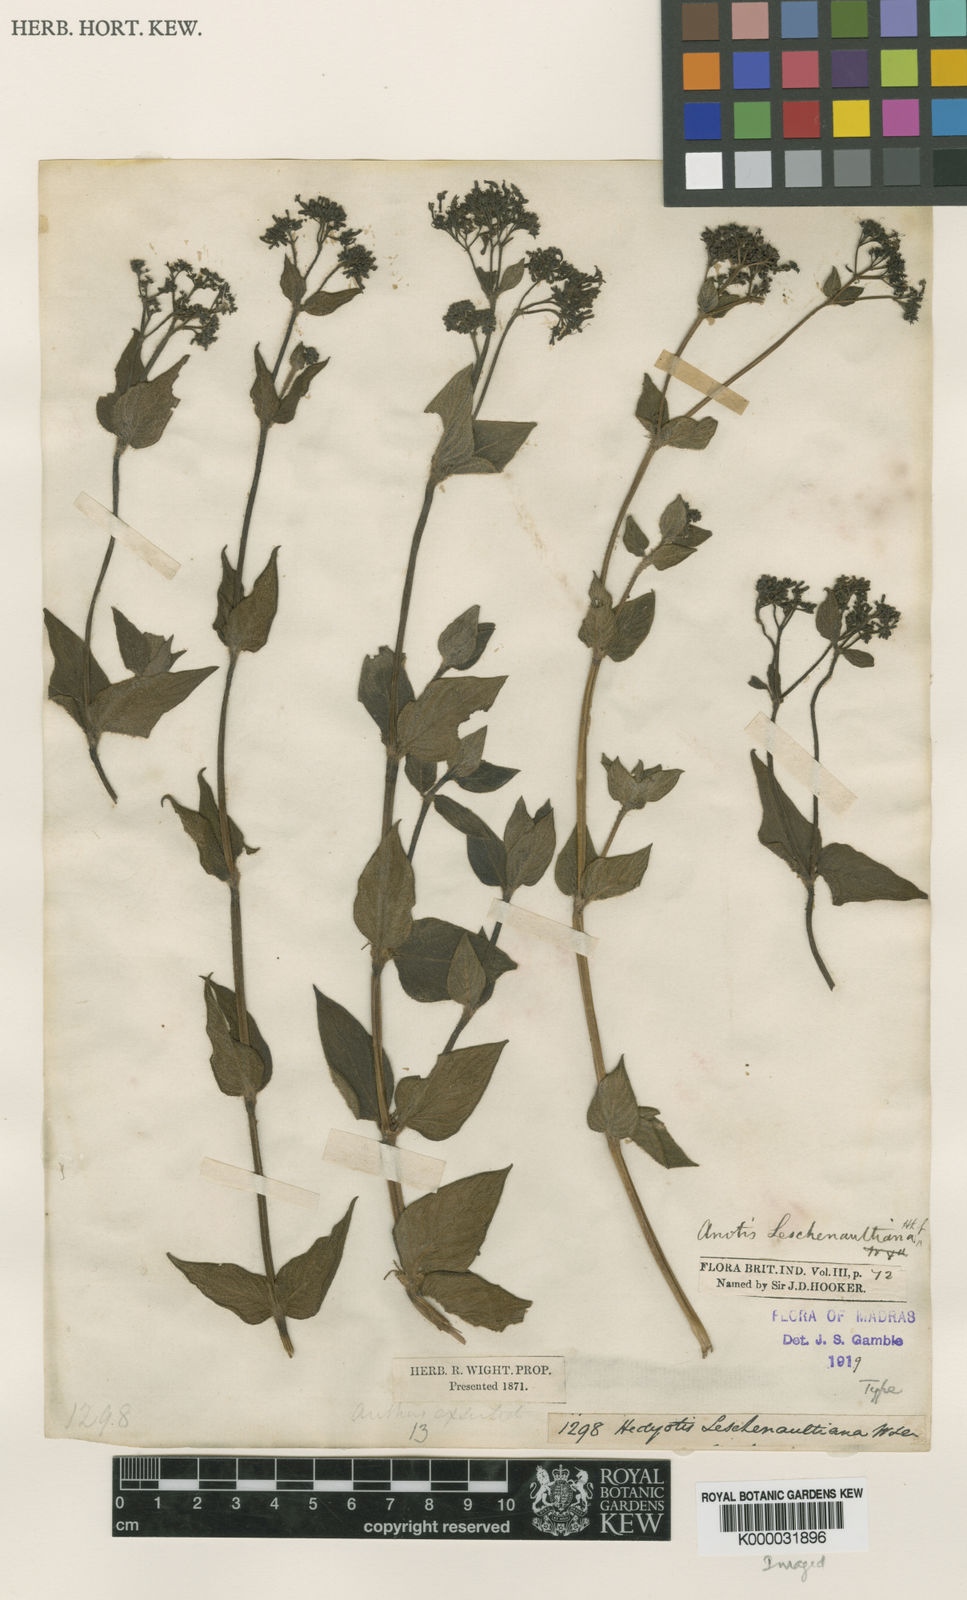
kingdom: Plantae
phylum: Tracheophyta
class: Magnoliopsida
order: Gentianales
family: Rubiaceae
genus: Neanotis
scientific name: Neanotis indica
